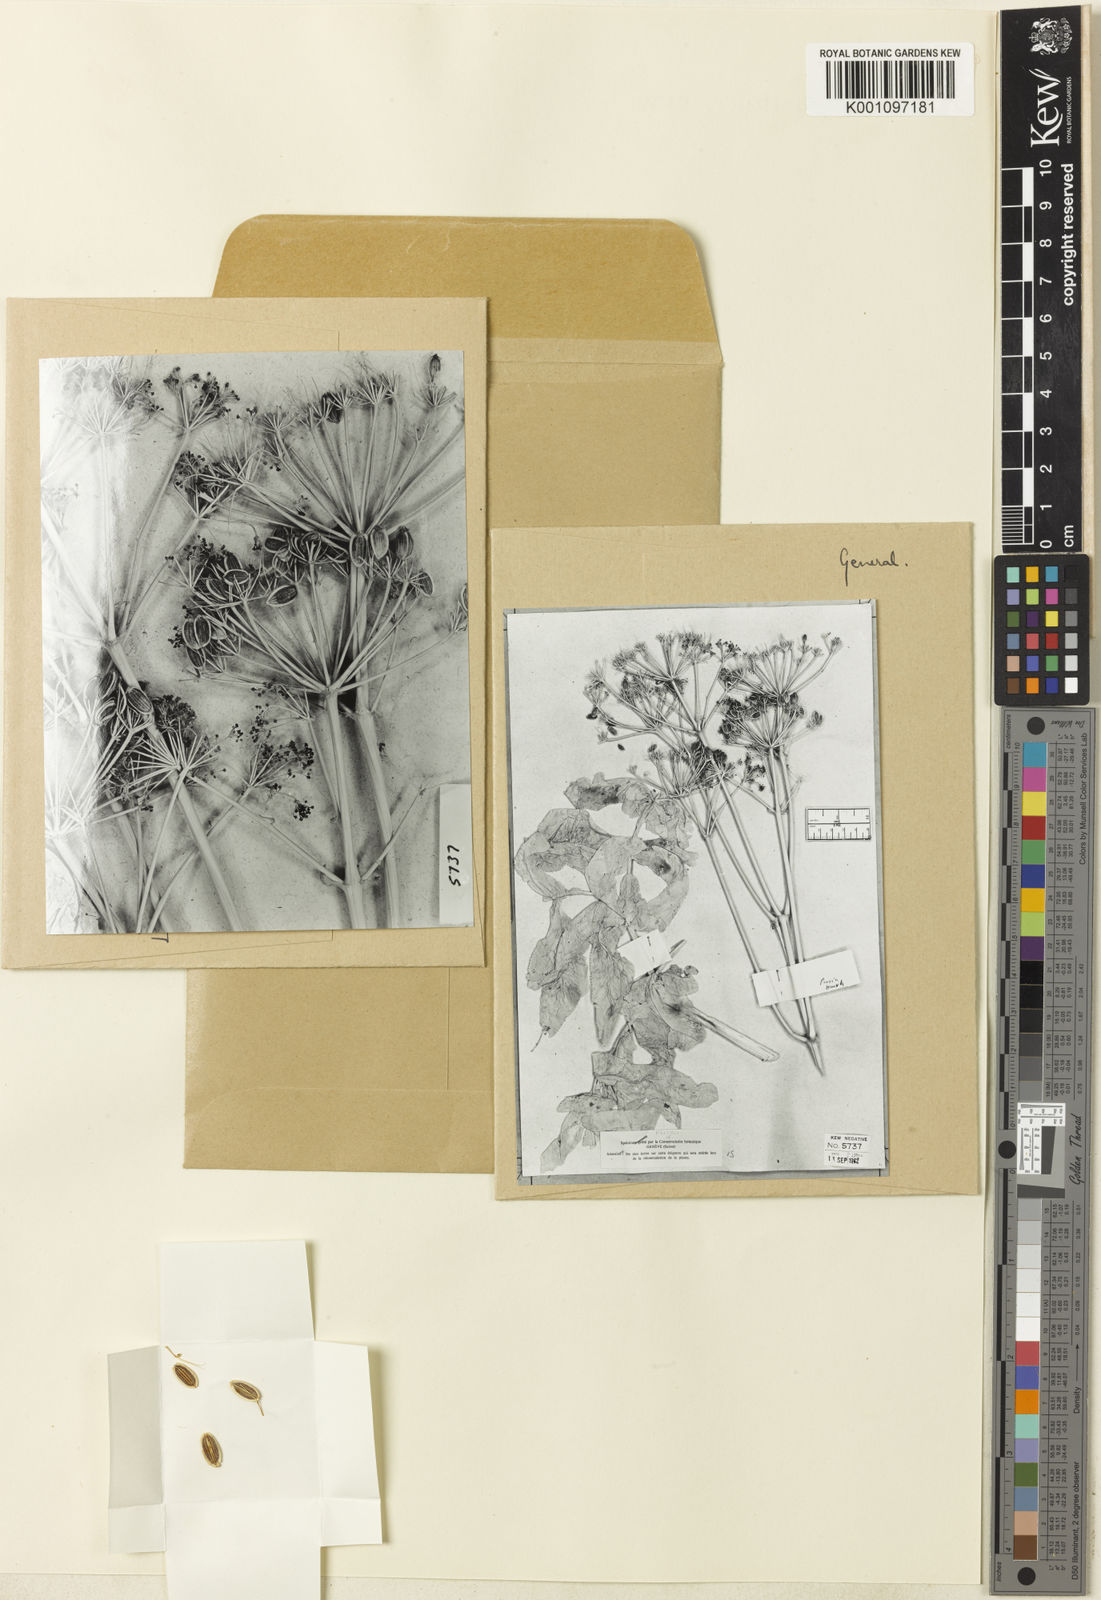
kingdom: Plantae
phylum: Tracheophyta
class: Magnoliopsida
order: Apiales
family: Apiaceae
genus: Opopanax
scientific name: Opopanax persicus
